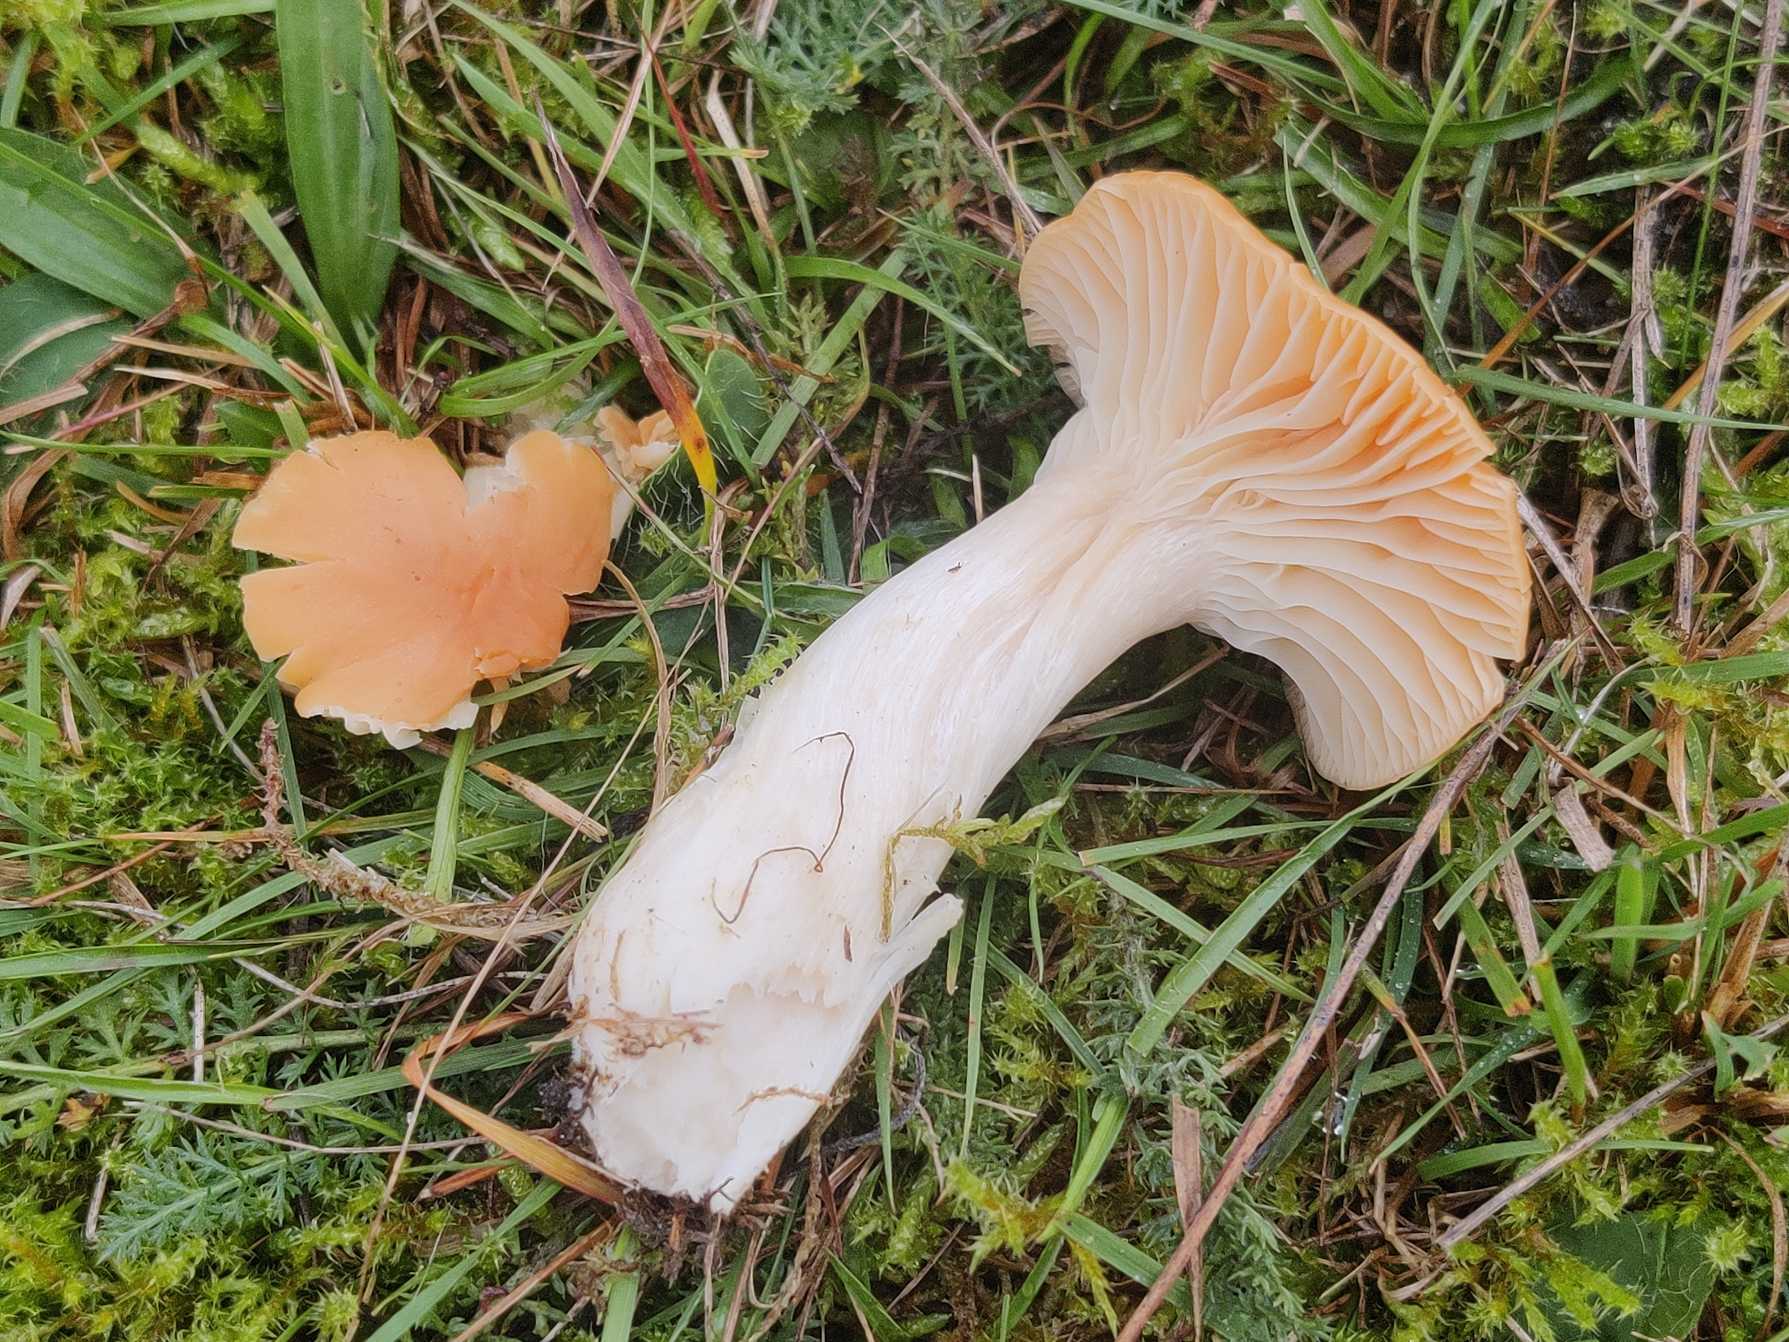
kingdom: Fungi
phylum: Basidiomycota
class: Agaricomycetes
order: Agaricales
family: Hygrophoraceae
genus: Cuphophyllus
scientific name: Cuphophyllus pratensis
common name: Eng-vokshat
